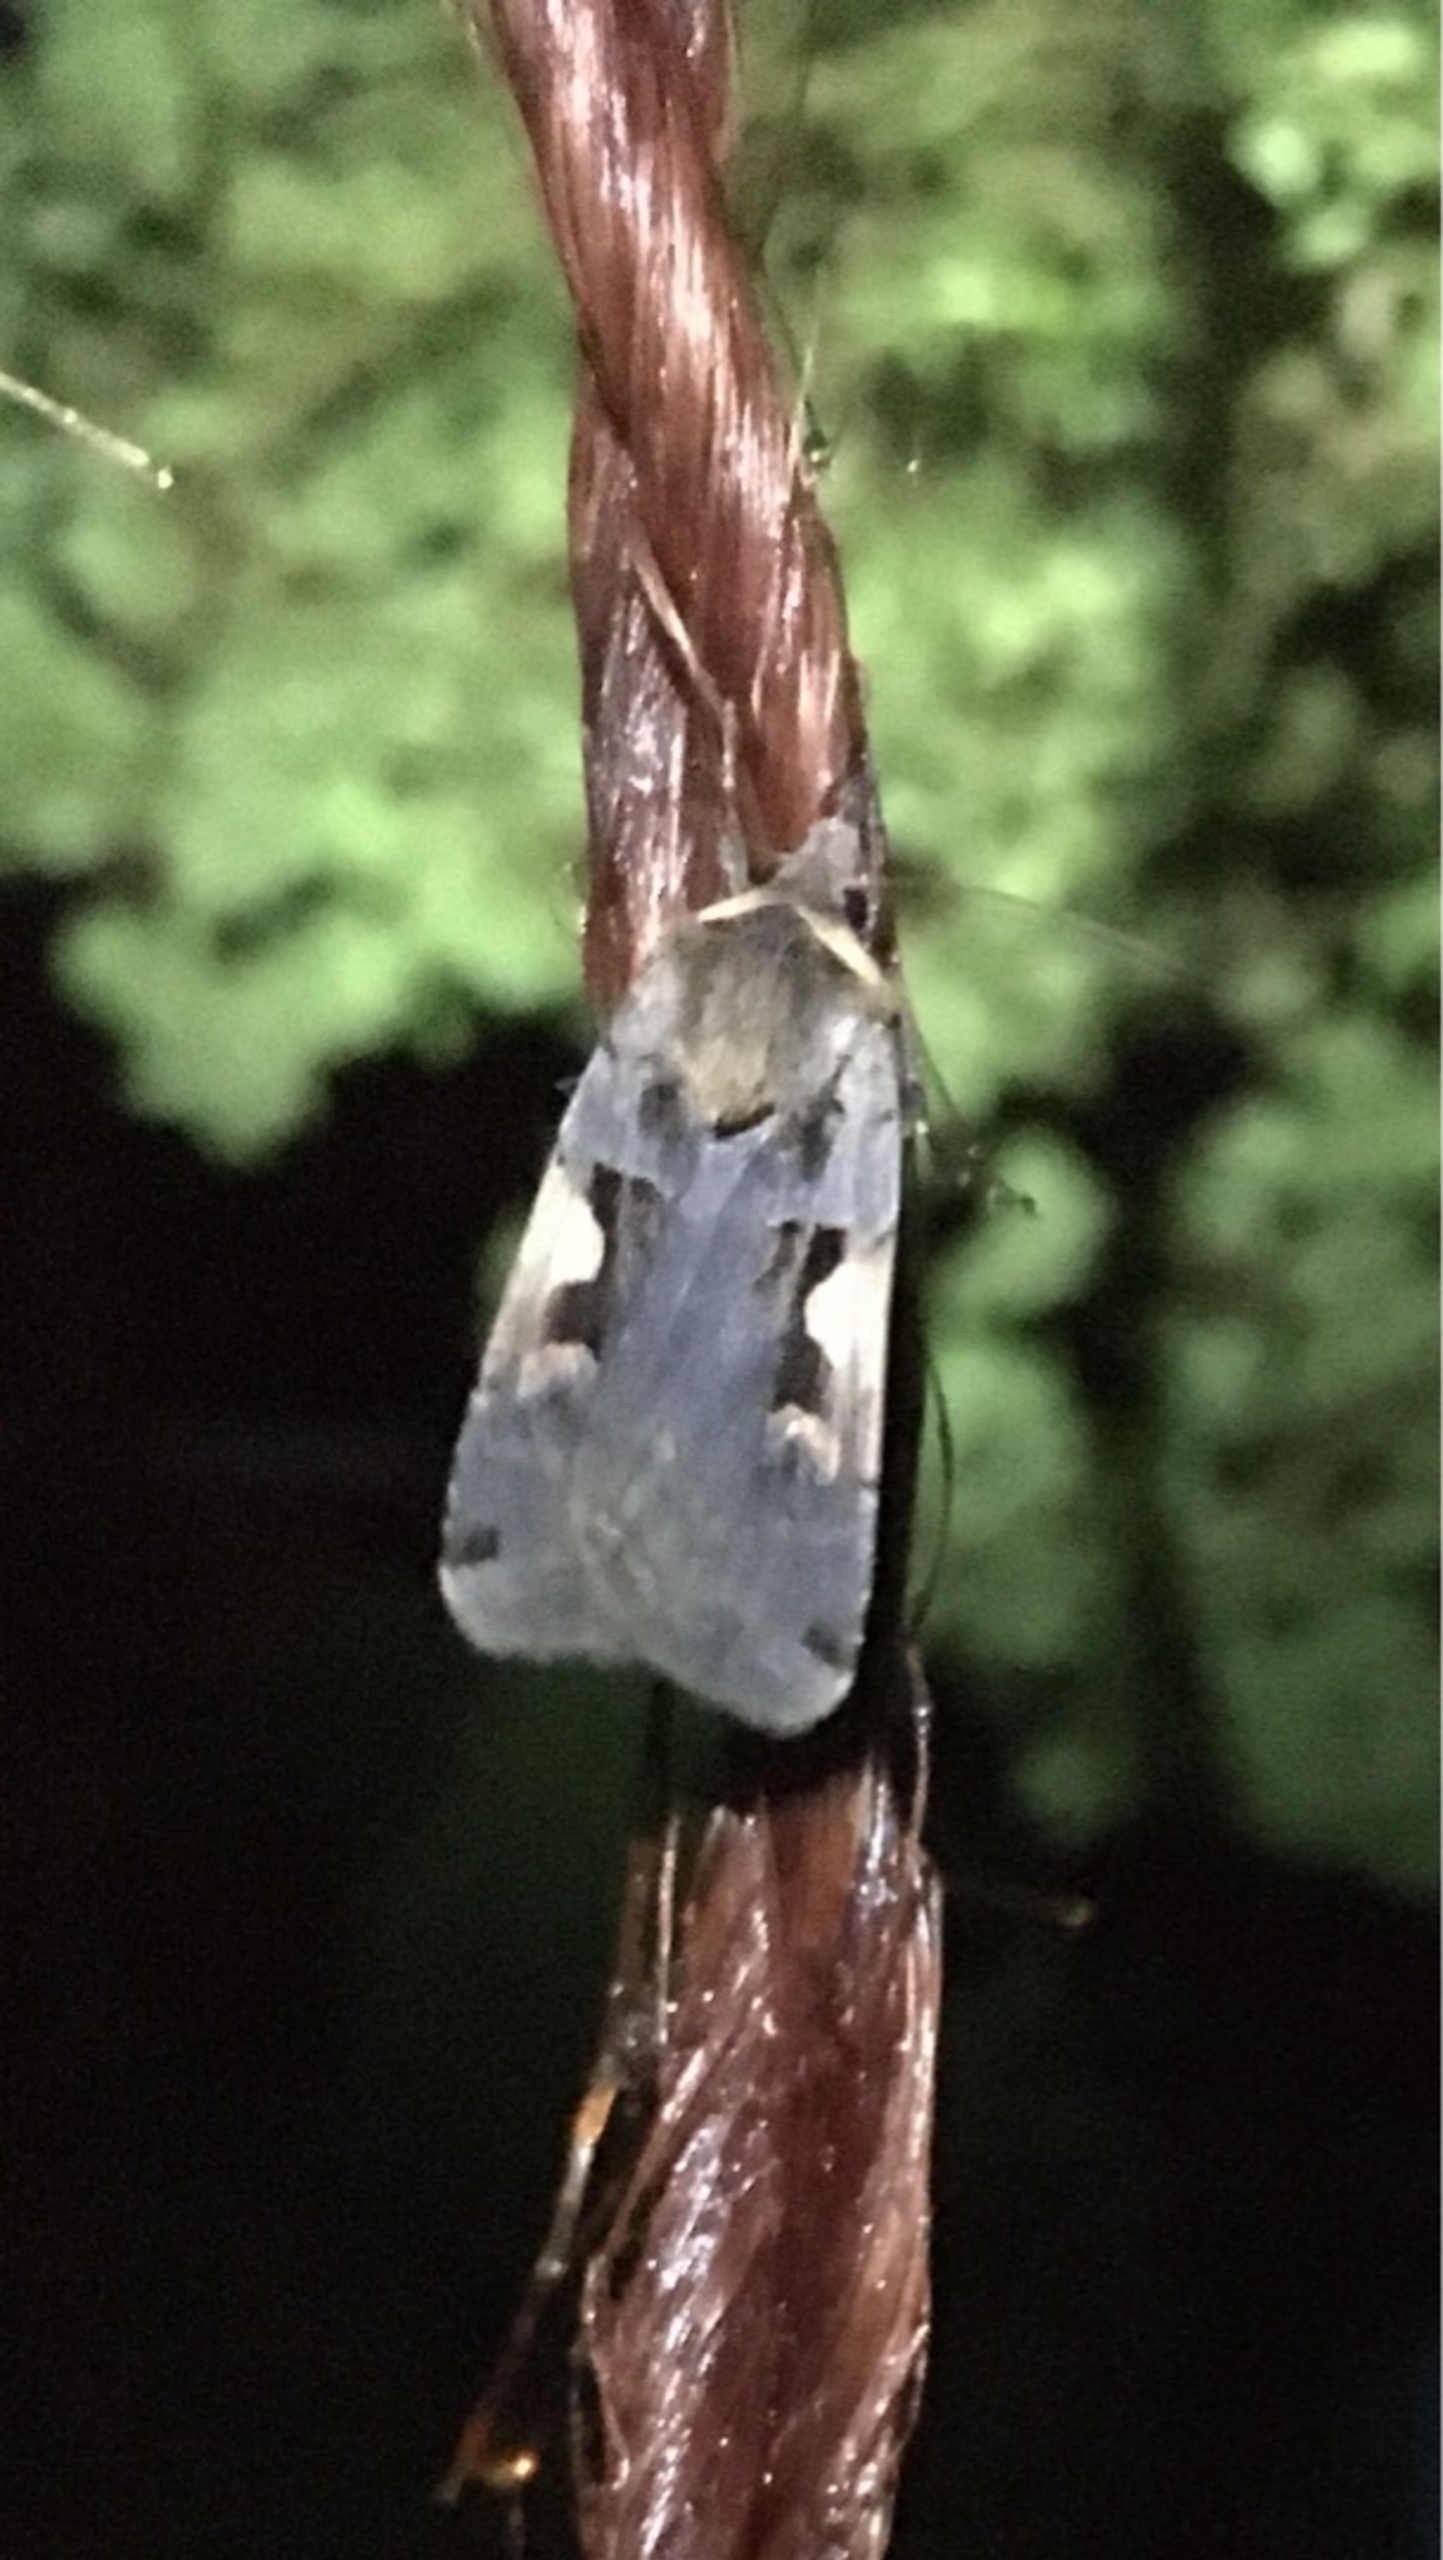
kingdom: Animalia
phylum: Arthropoda
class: Insecta
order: Lepidoptera
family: Noctuidae
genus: Xestia
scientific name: Xestia c-nigrum
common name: Det sorte c
